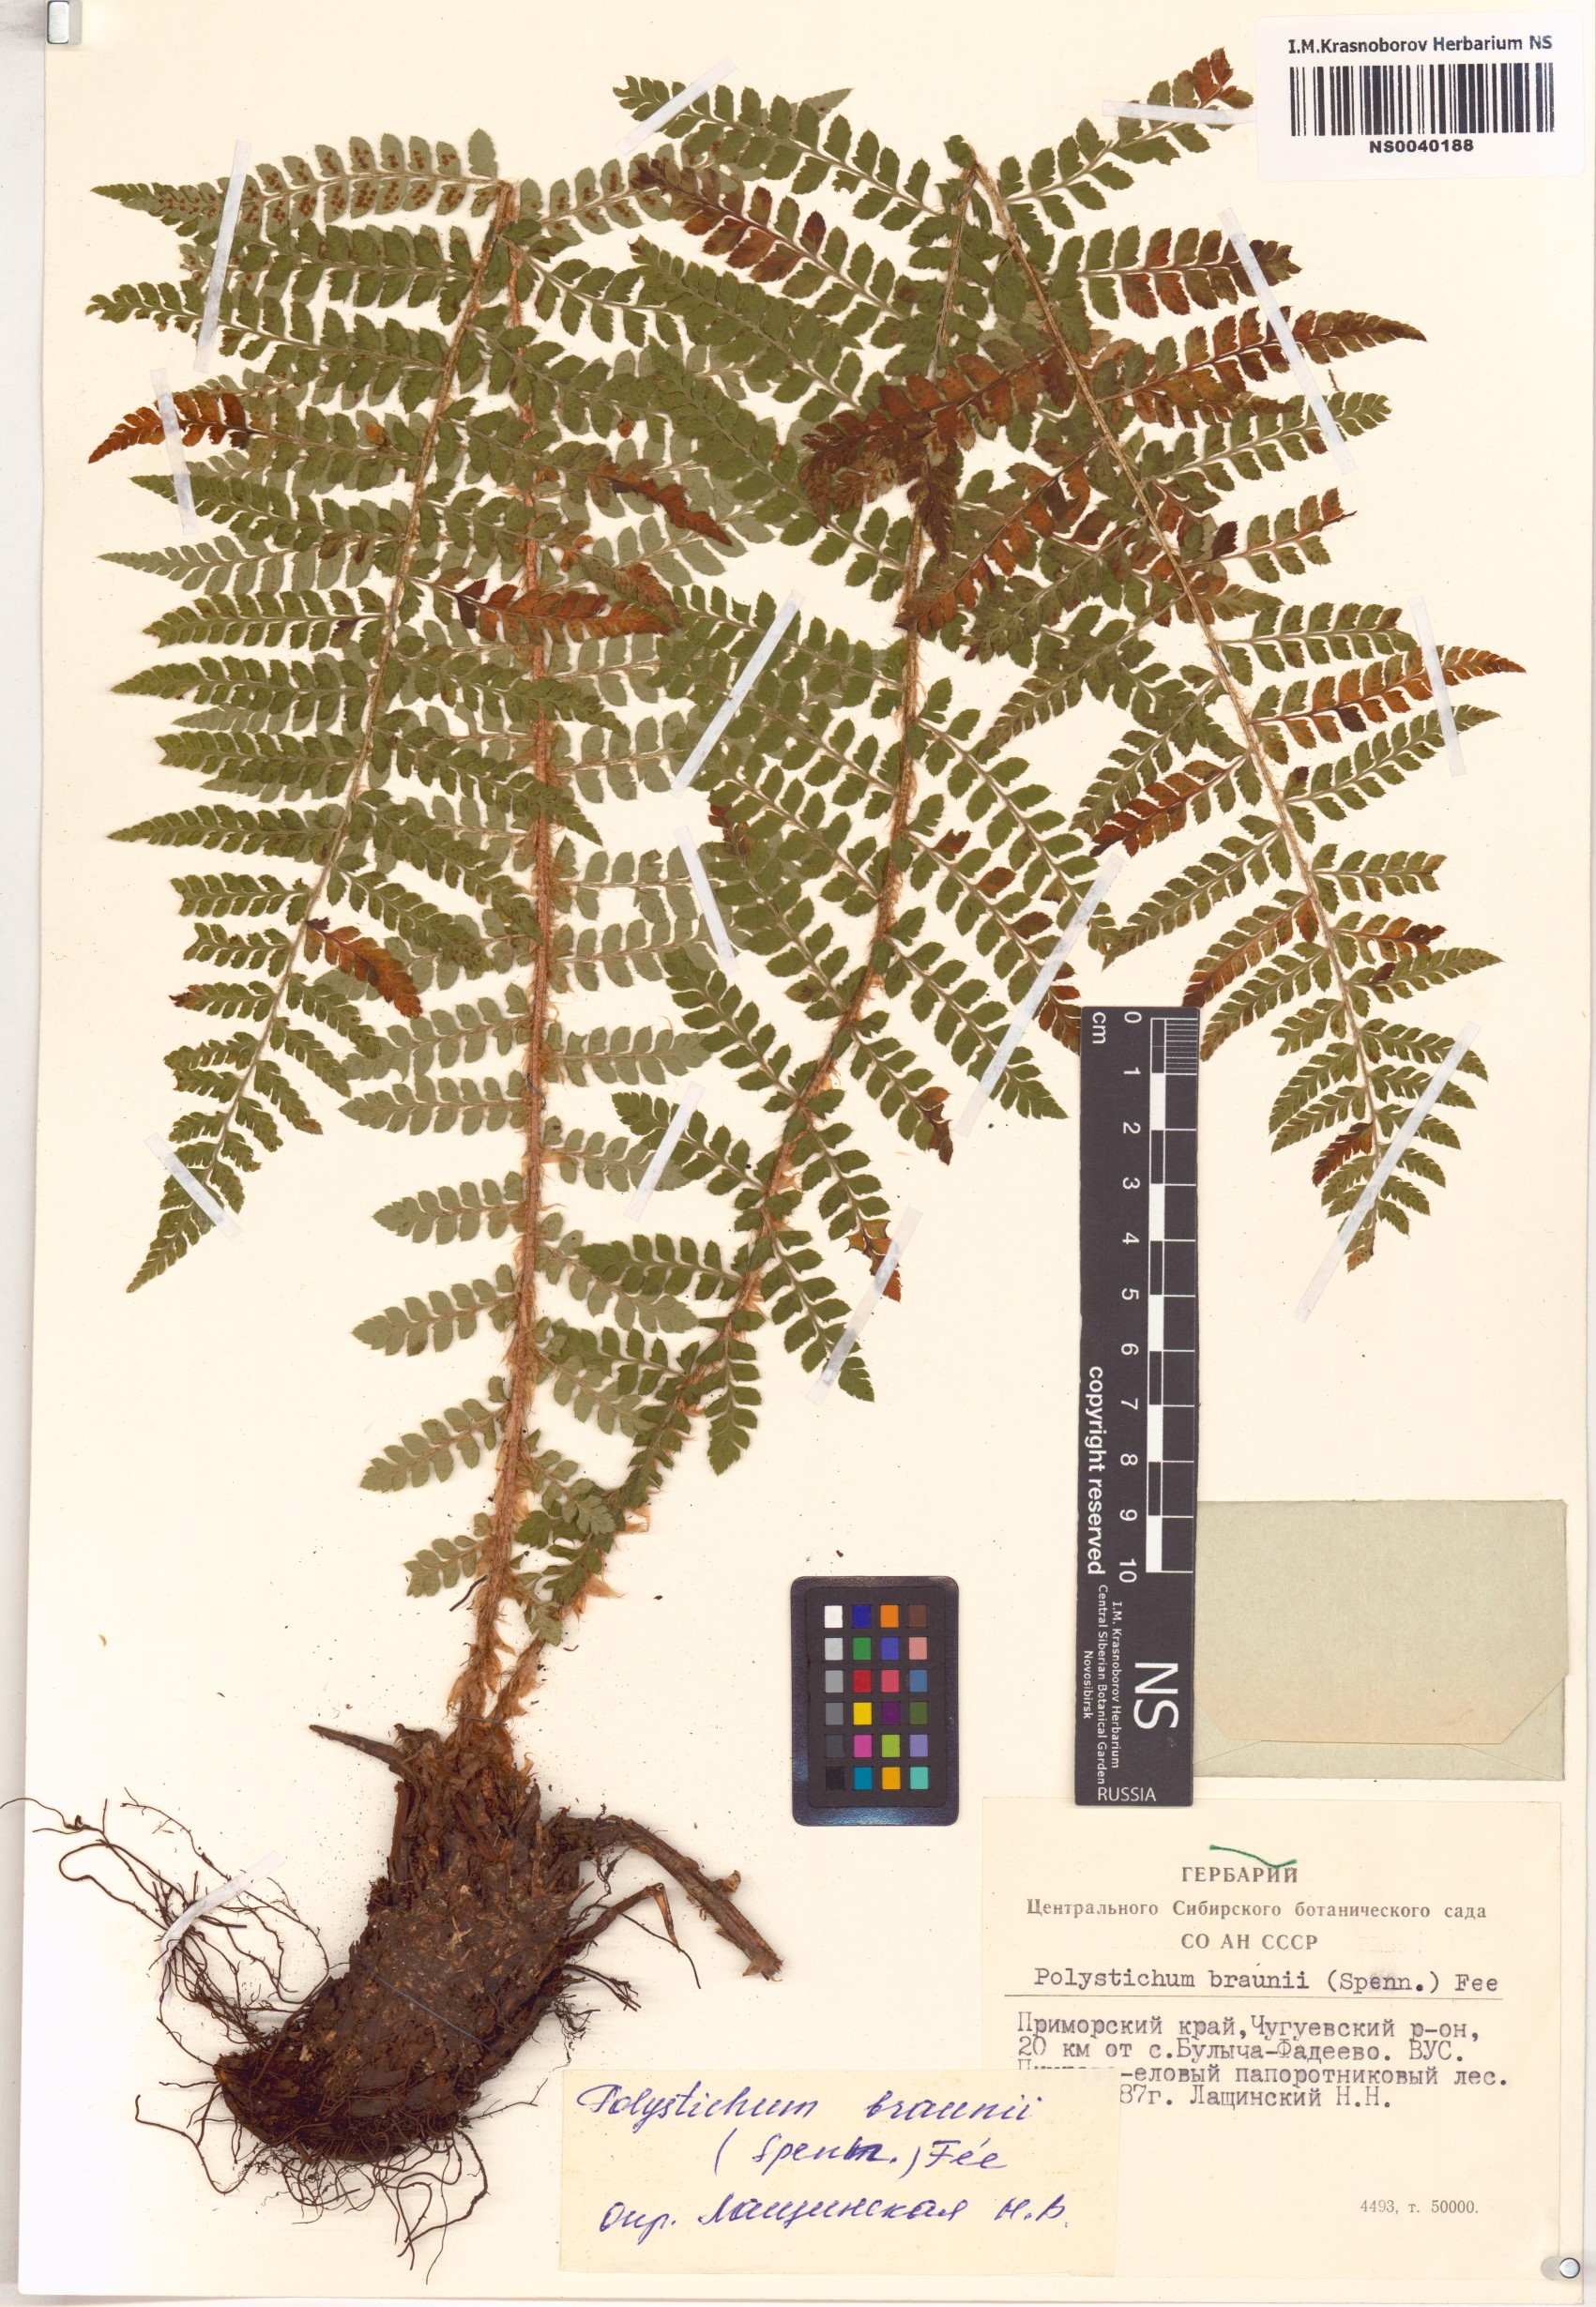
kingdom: Plantae
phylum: Tracheophyta
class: Polypodiopsida
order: Polypodiales
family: Dryopteridaceae
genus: Polystichum
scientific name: Polystichum braunii
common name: Braun's holly fern
